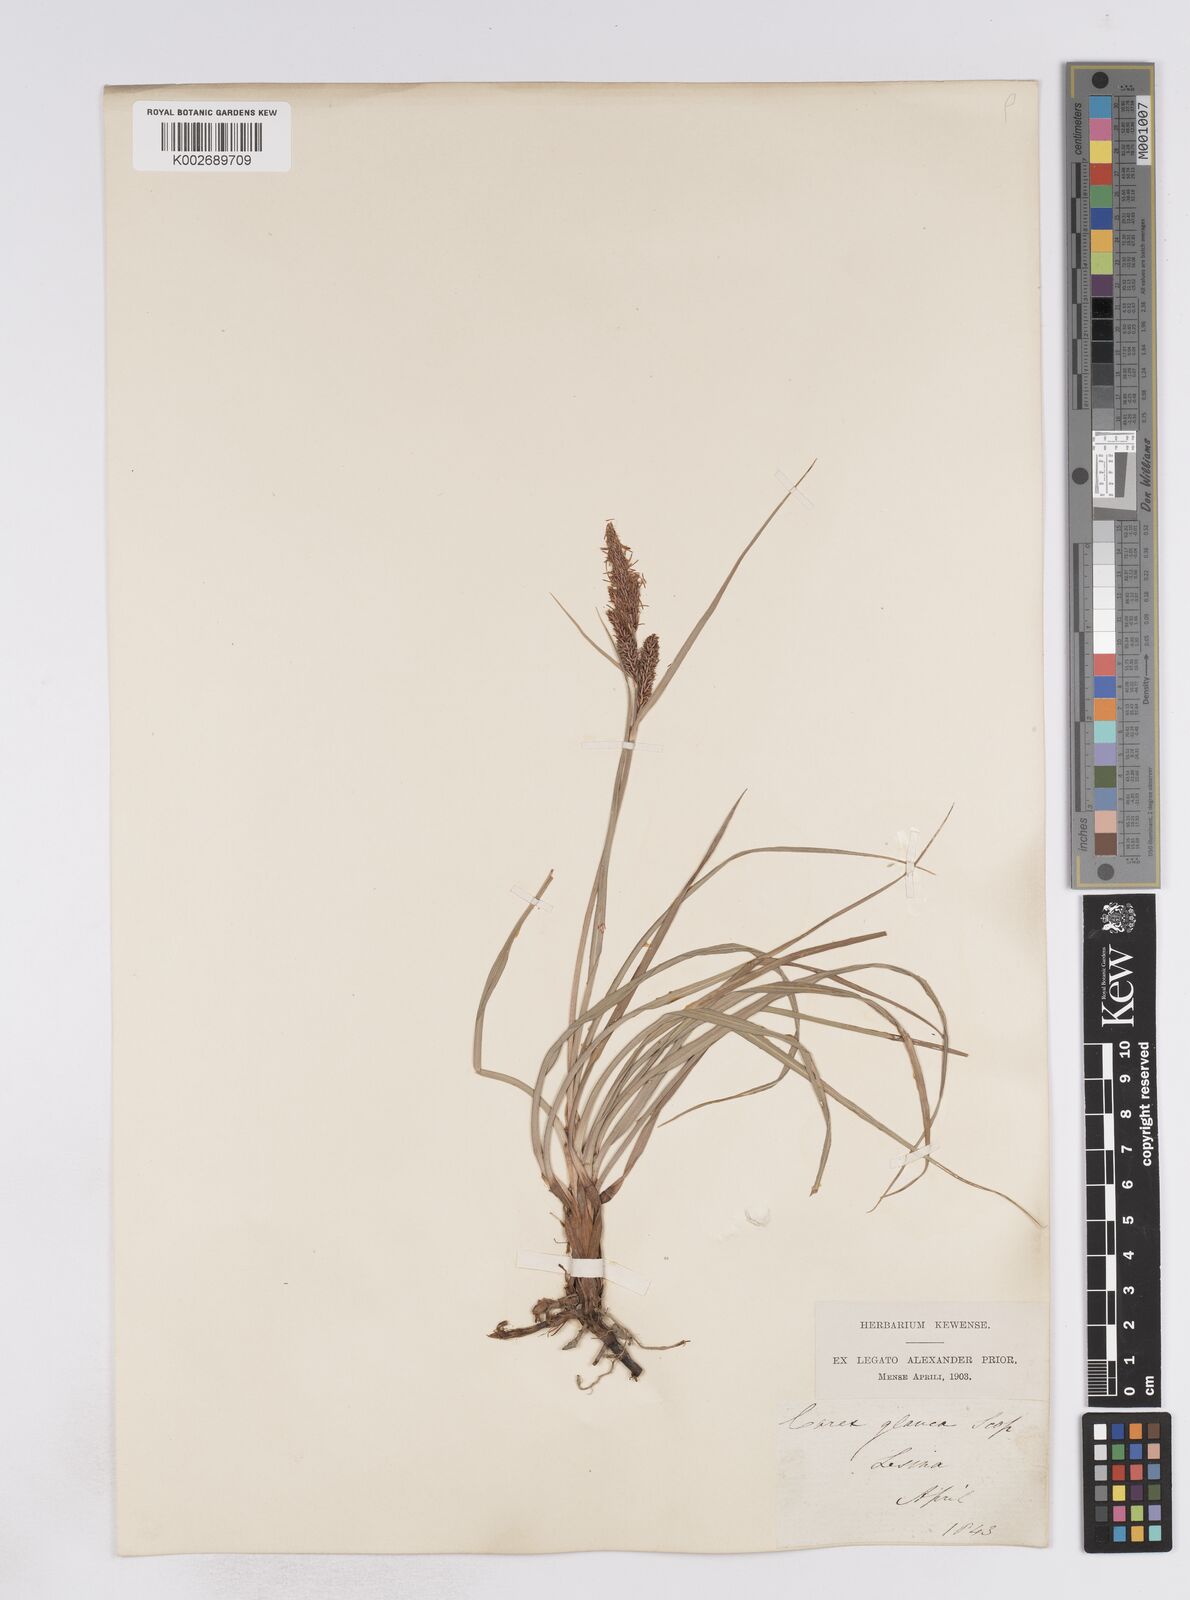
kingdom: Plantae
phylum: Tracheophyta
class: Liliopsida
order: Poales
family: Cyperaceae
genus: Carex
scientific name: Carex flacca
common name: Glaucous sedge
